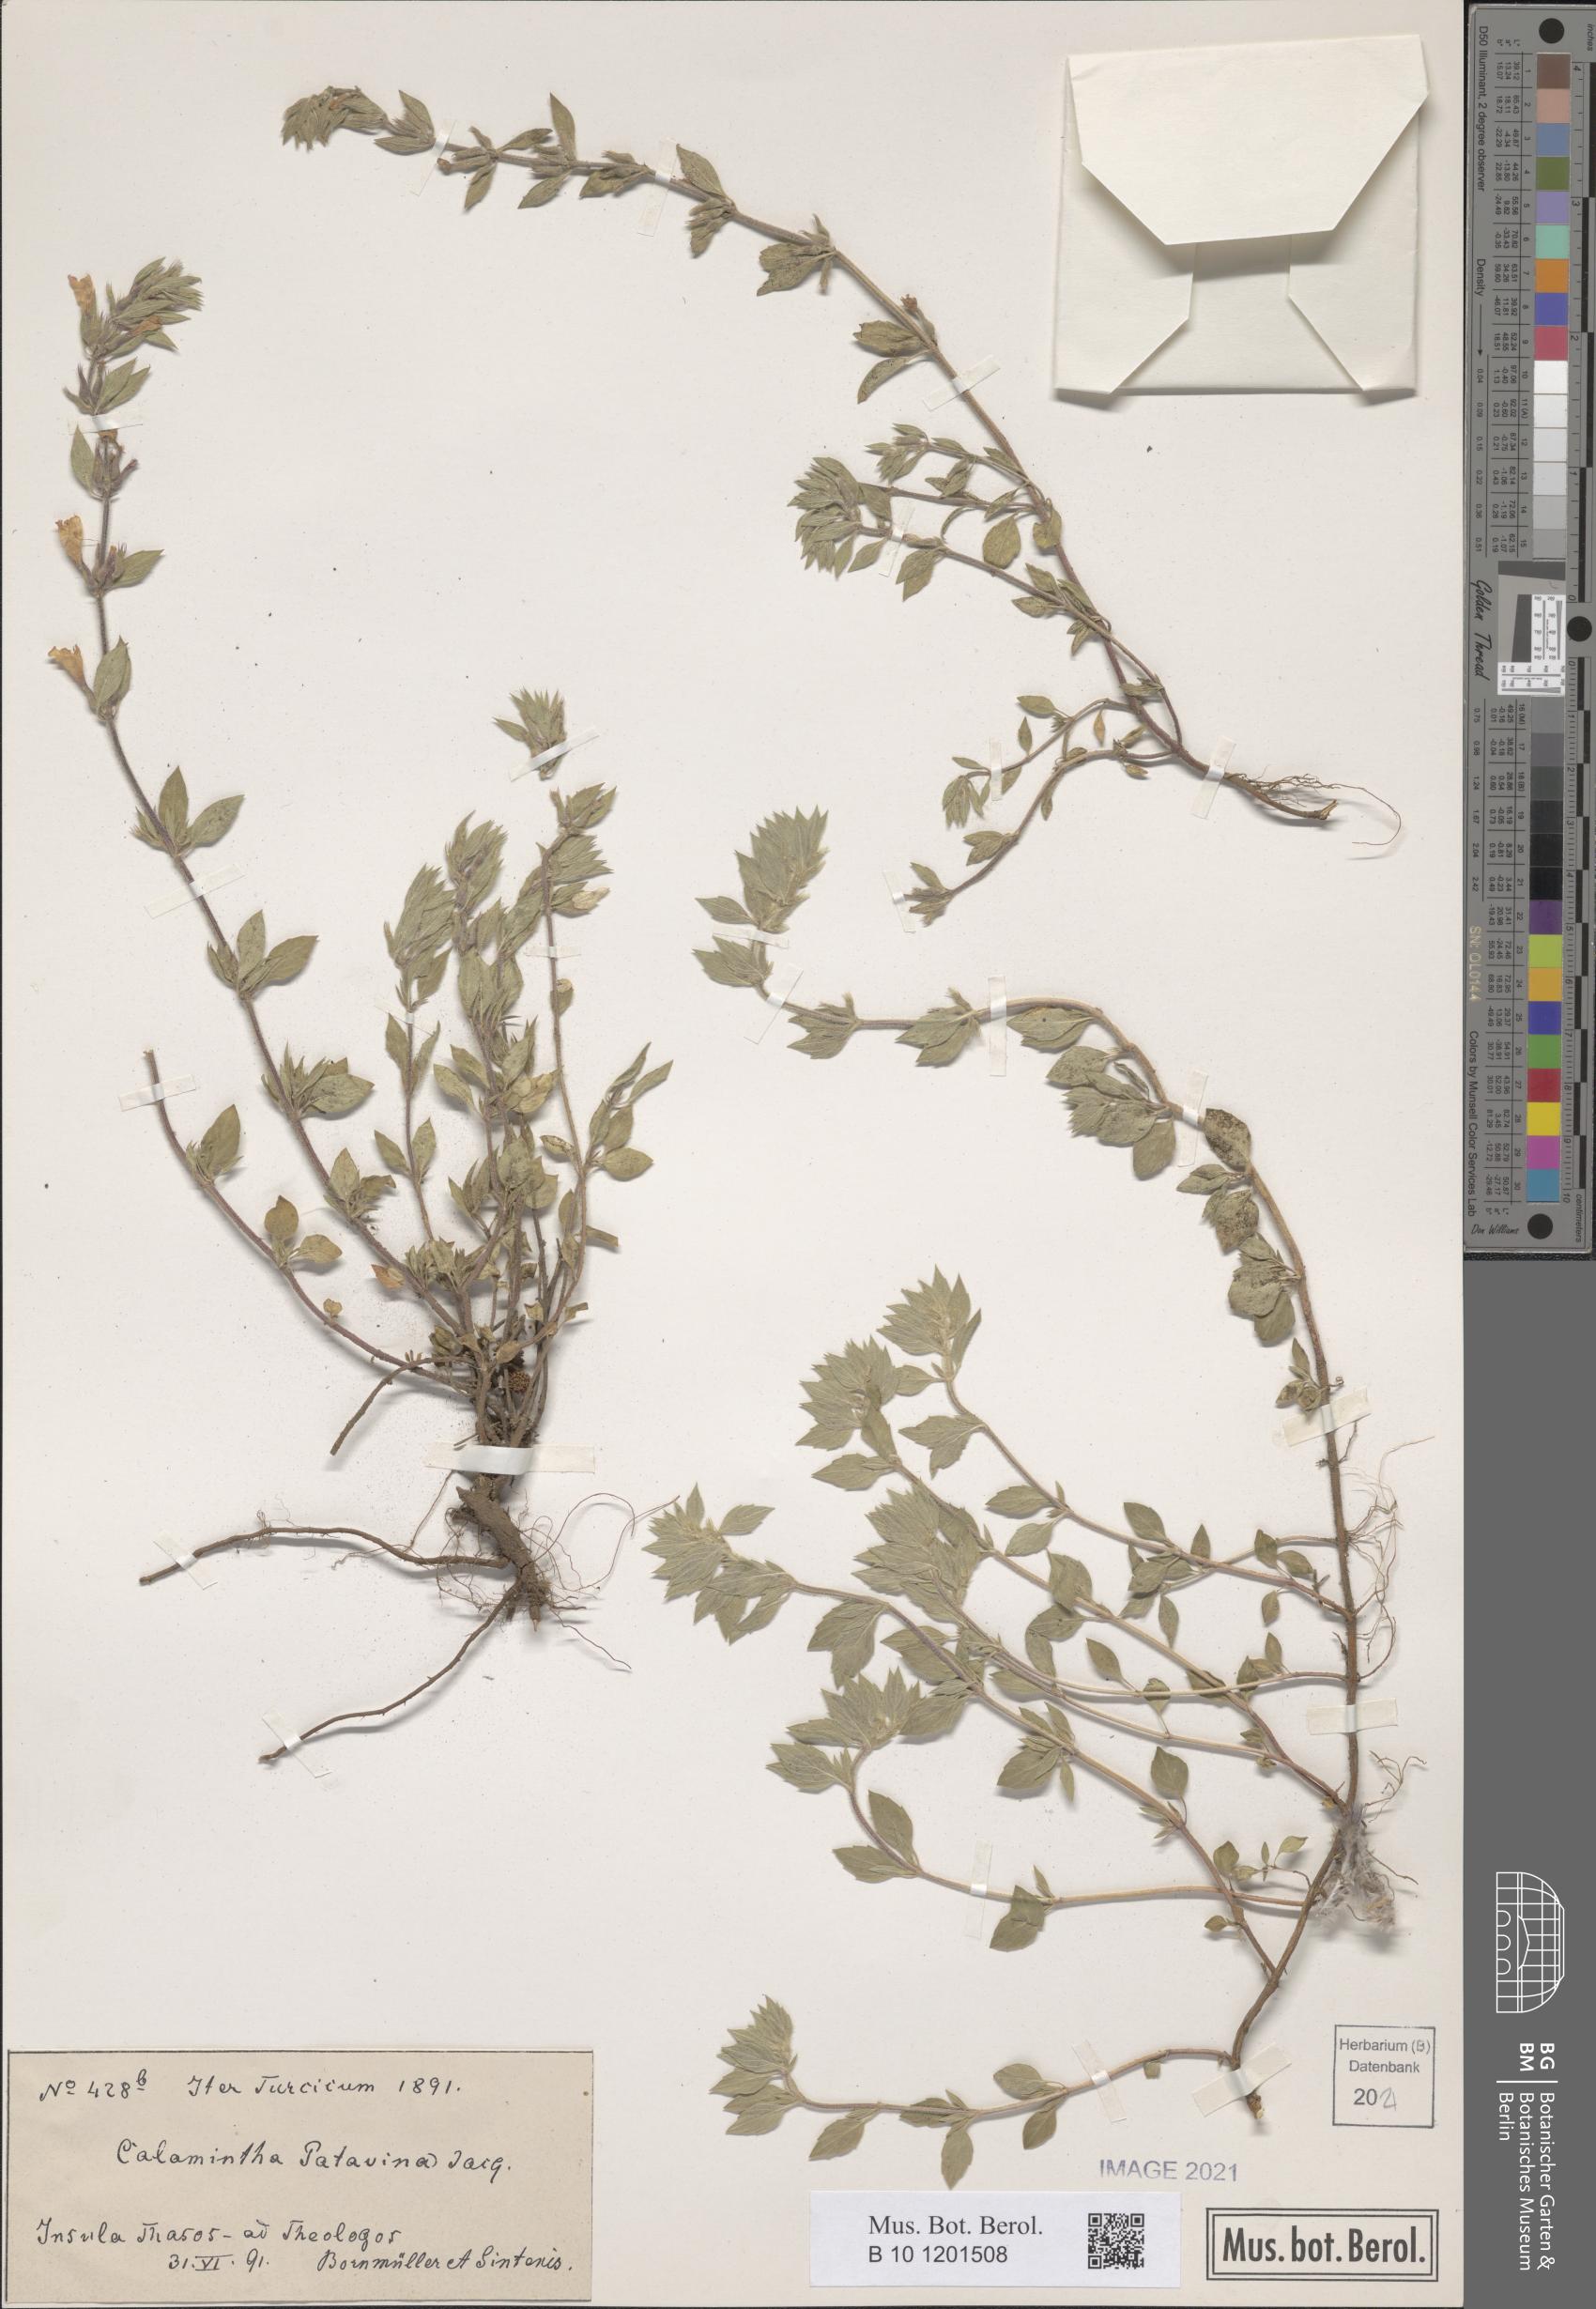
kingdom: Plantae
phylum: Tracheophyta
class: Magnoliopsida
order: Lamiales
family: Lamiaceae
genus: Clinopodium
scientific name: Clinopodium alpinum
